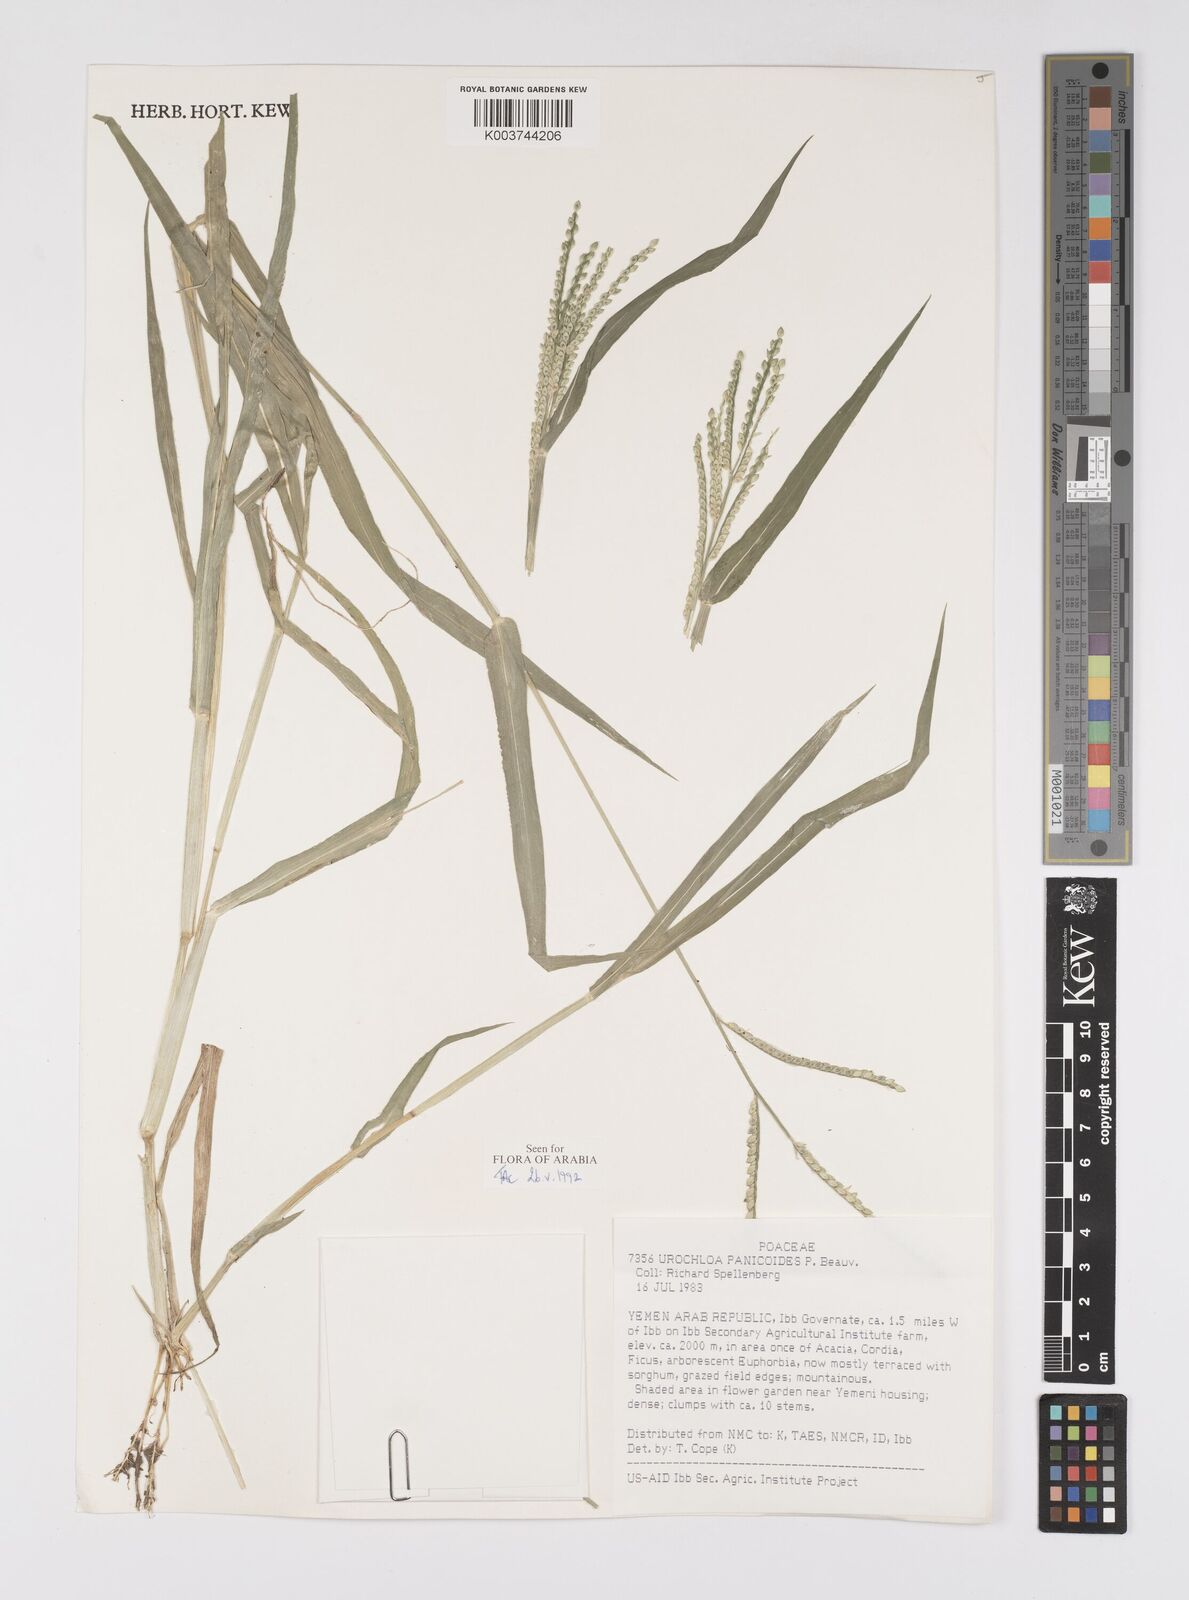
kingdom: Plantae
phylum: Tracheophyta
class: Liliopsida
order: Poales
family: Poaceae
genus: Urochloa
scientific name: Urochloa panicoides
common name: Sharp-flowered signal-grass
